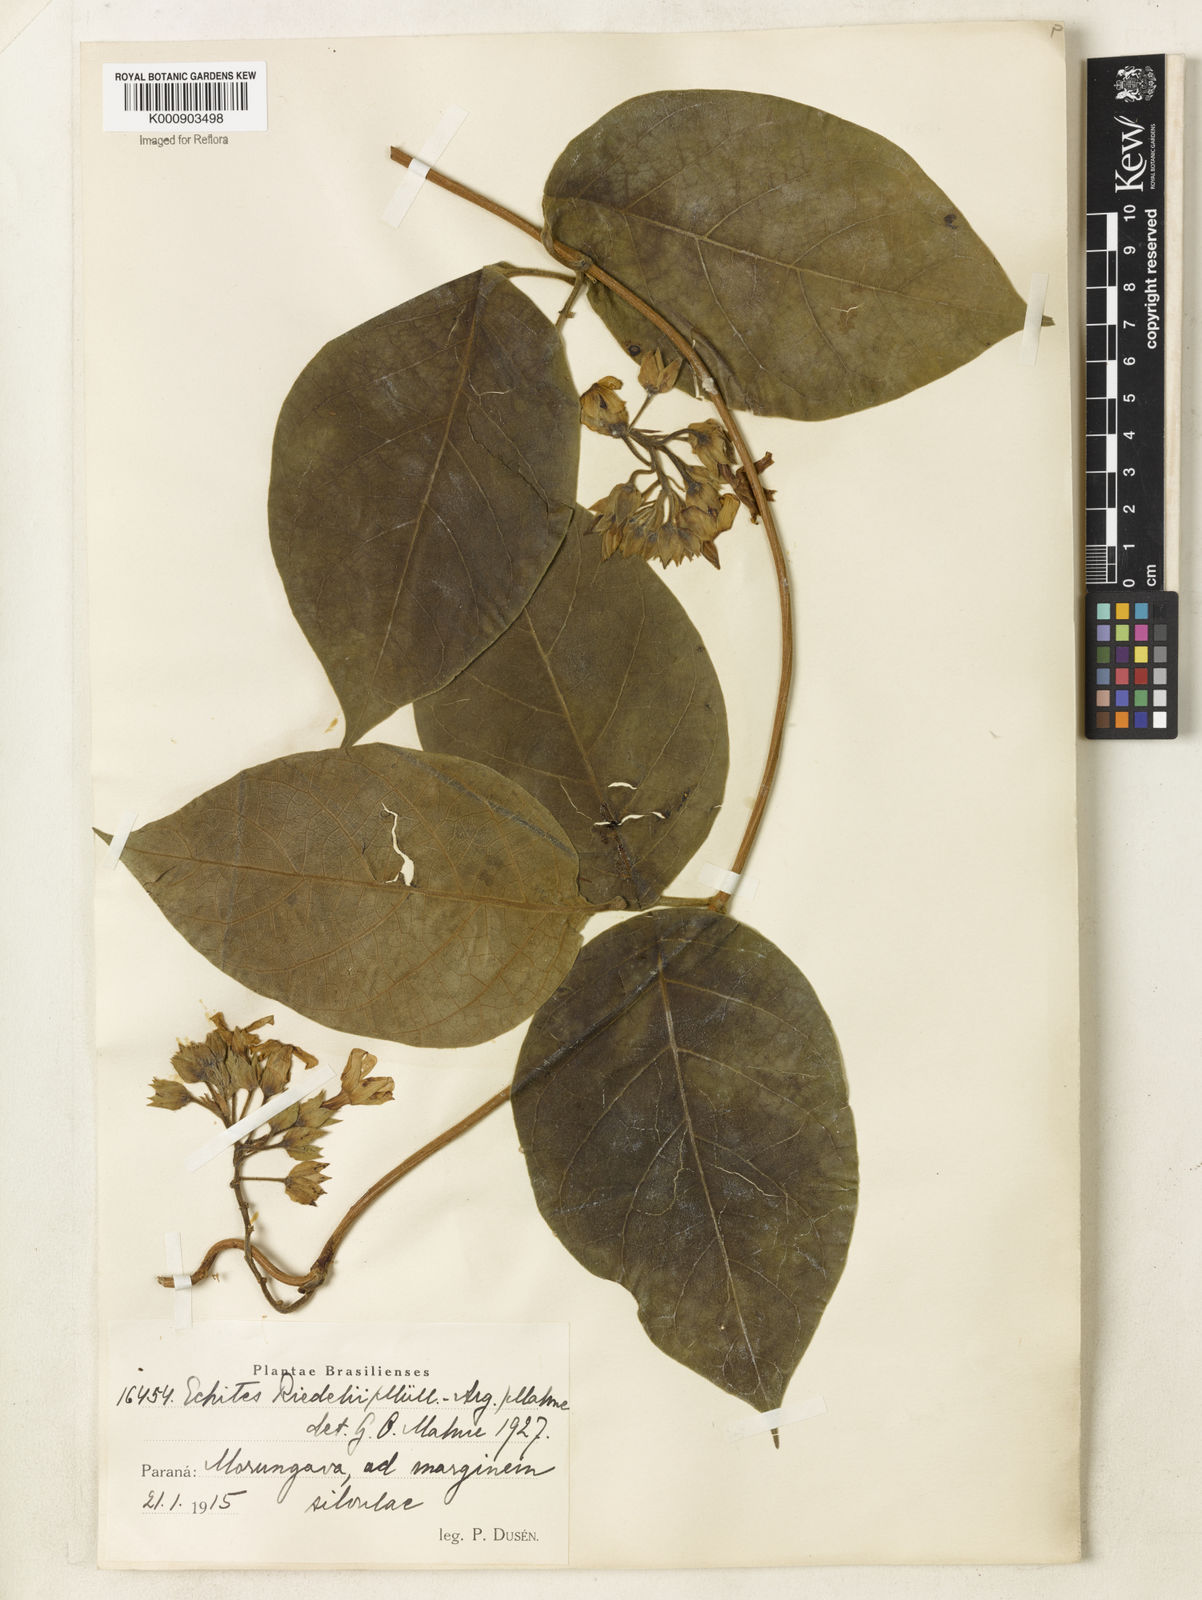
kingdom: Plantae
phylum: Tracheophyta
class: Magnoliopsida
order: Gentianales
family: Apocynaceae
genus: Prestonia
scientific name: Prestonia
